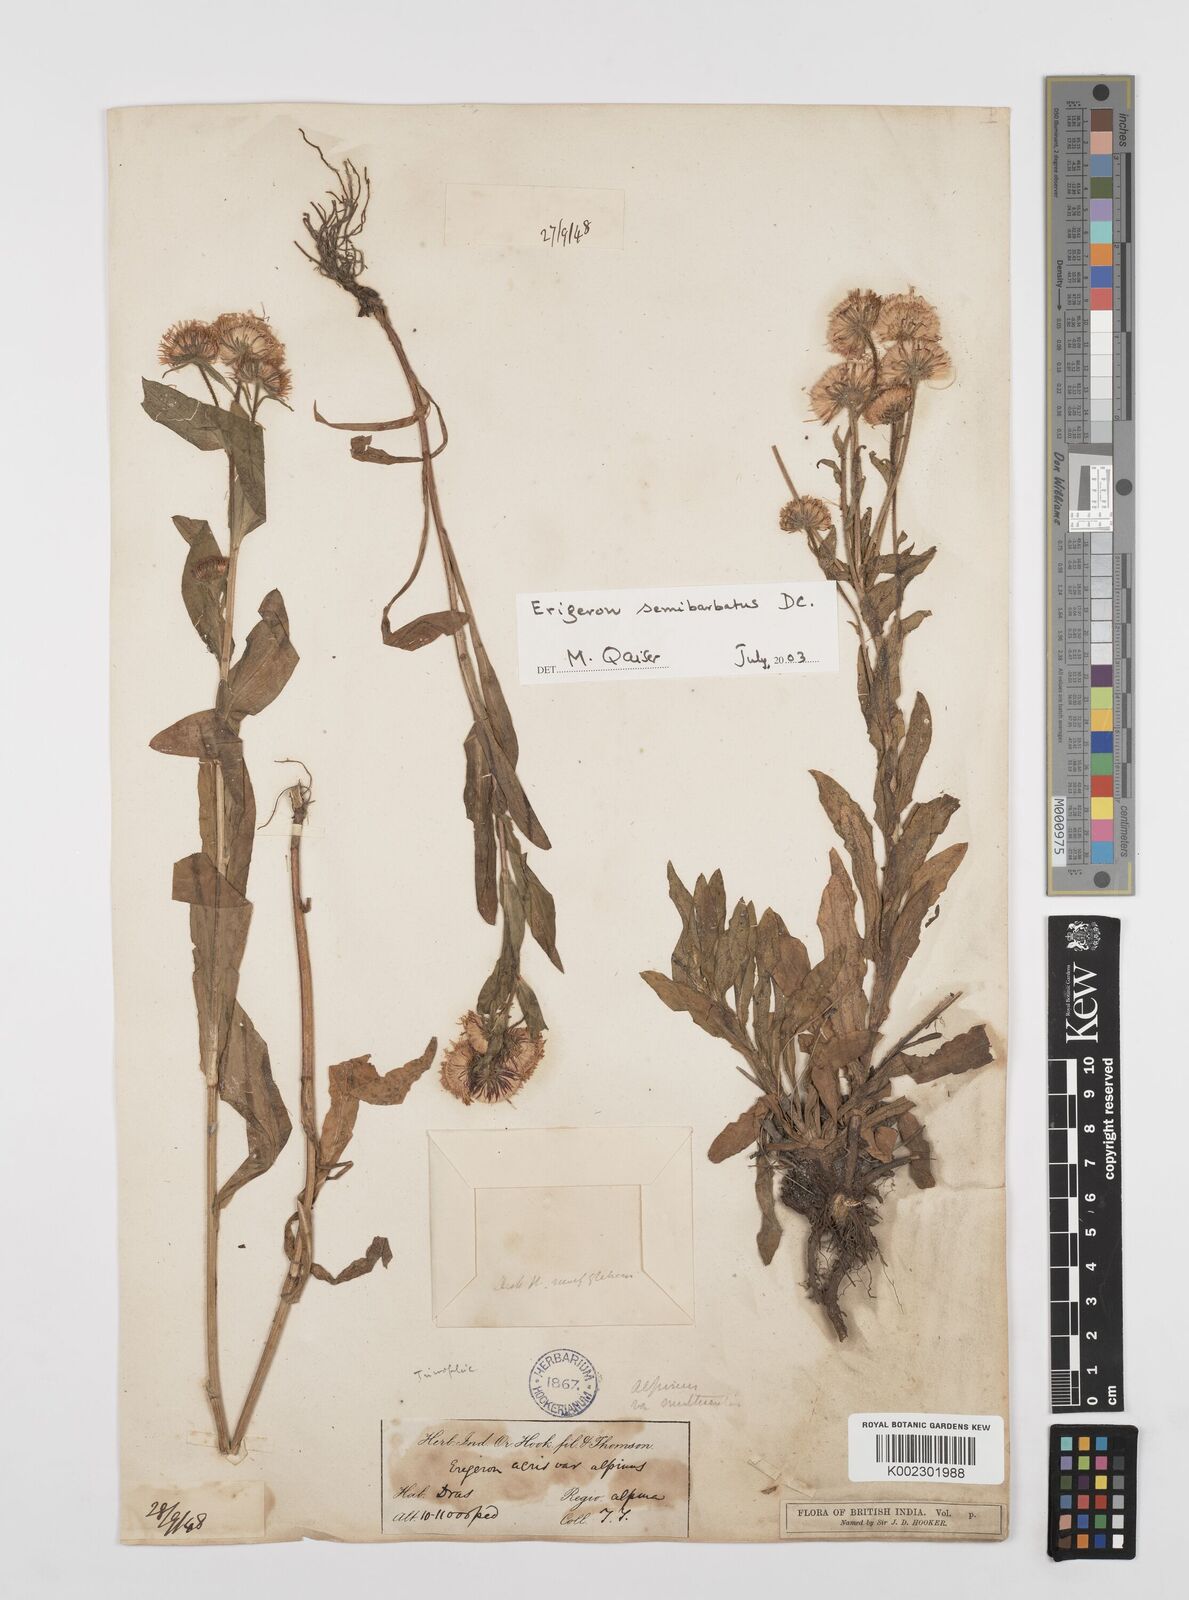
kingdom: Plantae
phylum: Tracheophyta
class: Magnoliopsida
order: Asterales
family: Asteraceae
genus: Erigeron
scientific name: Erigeron alpinus
